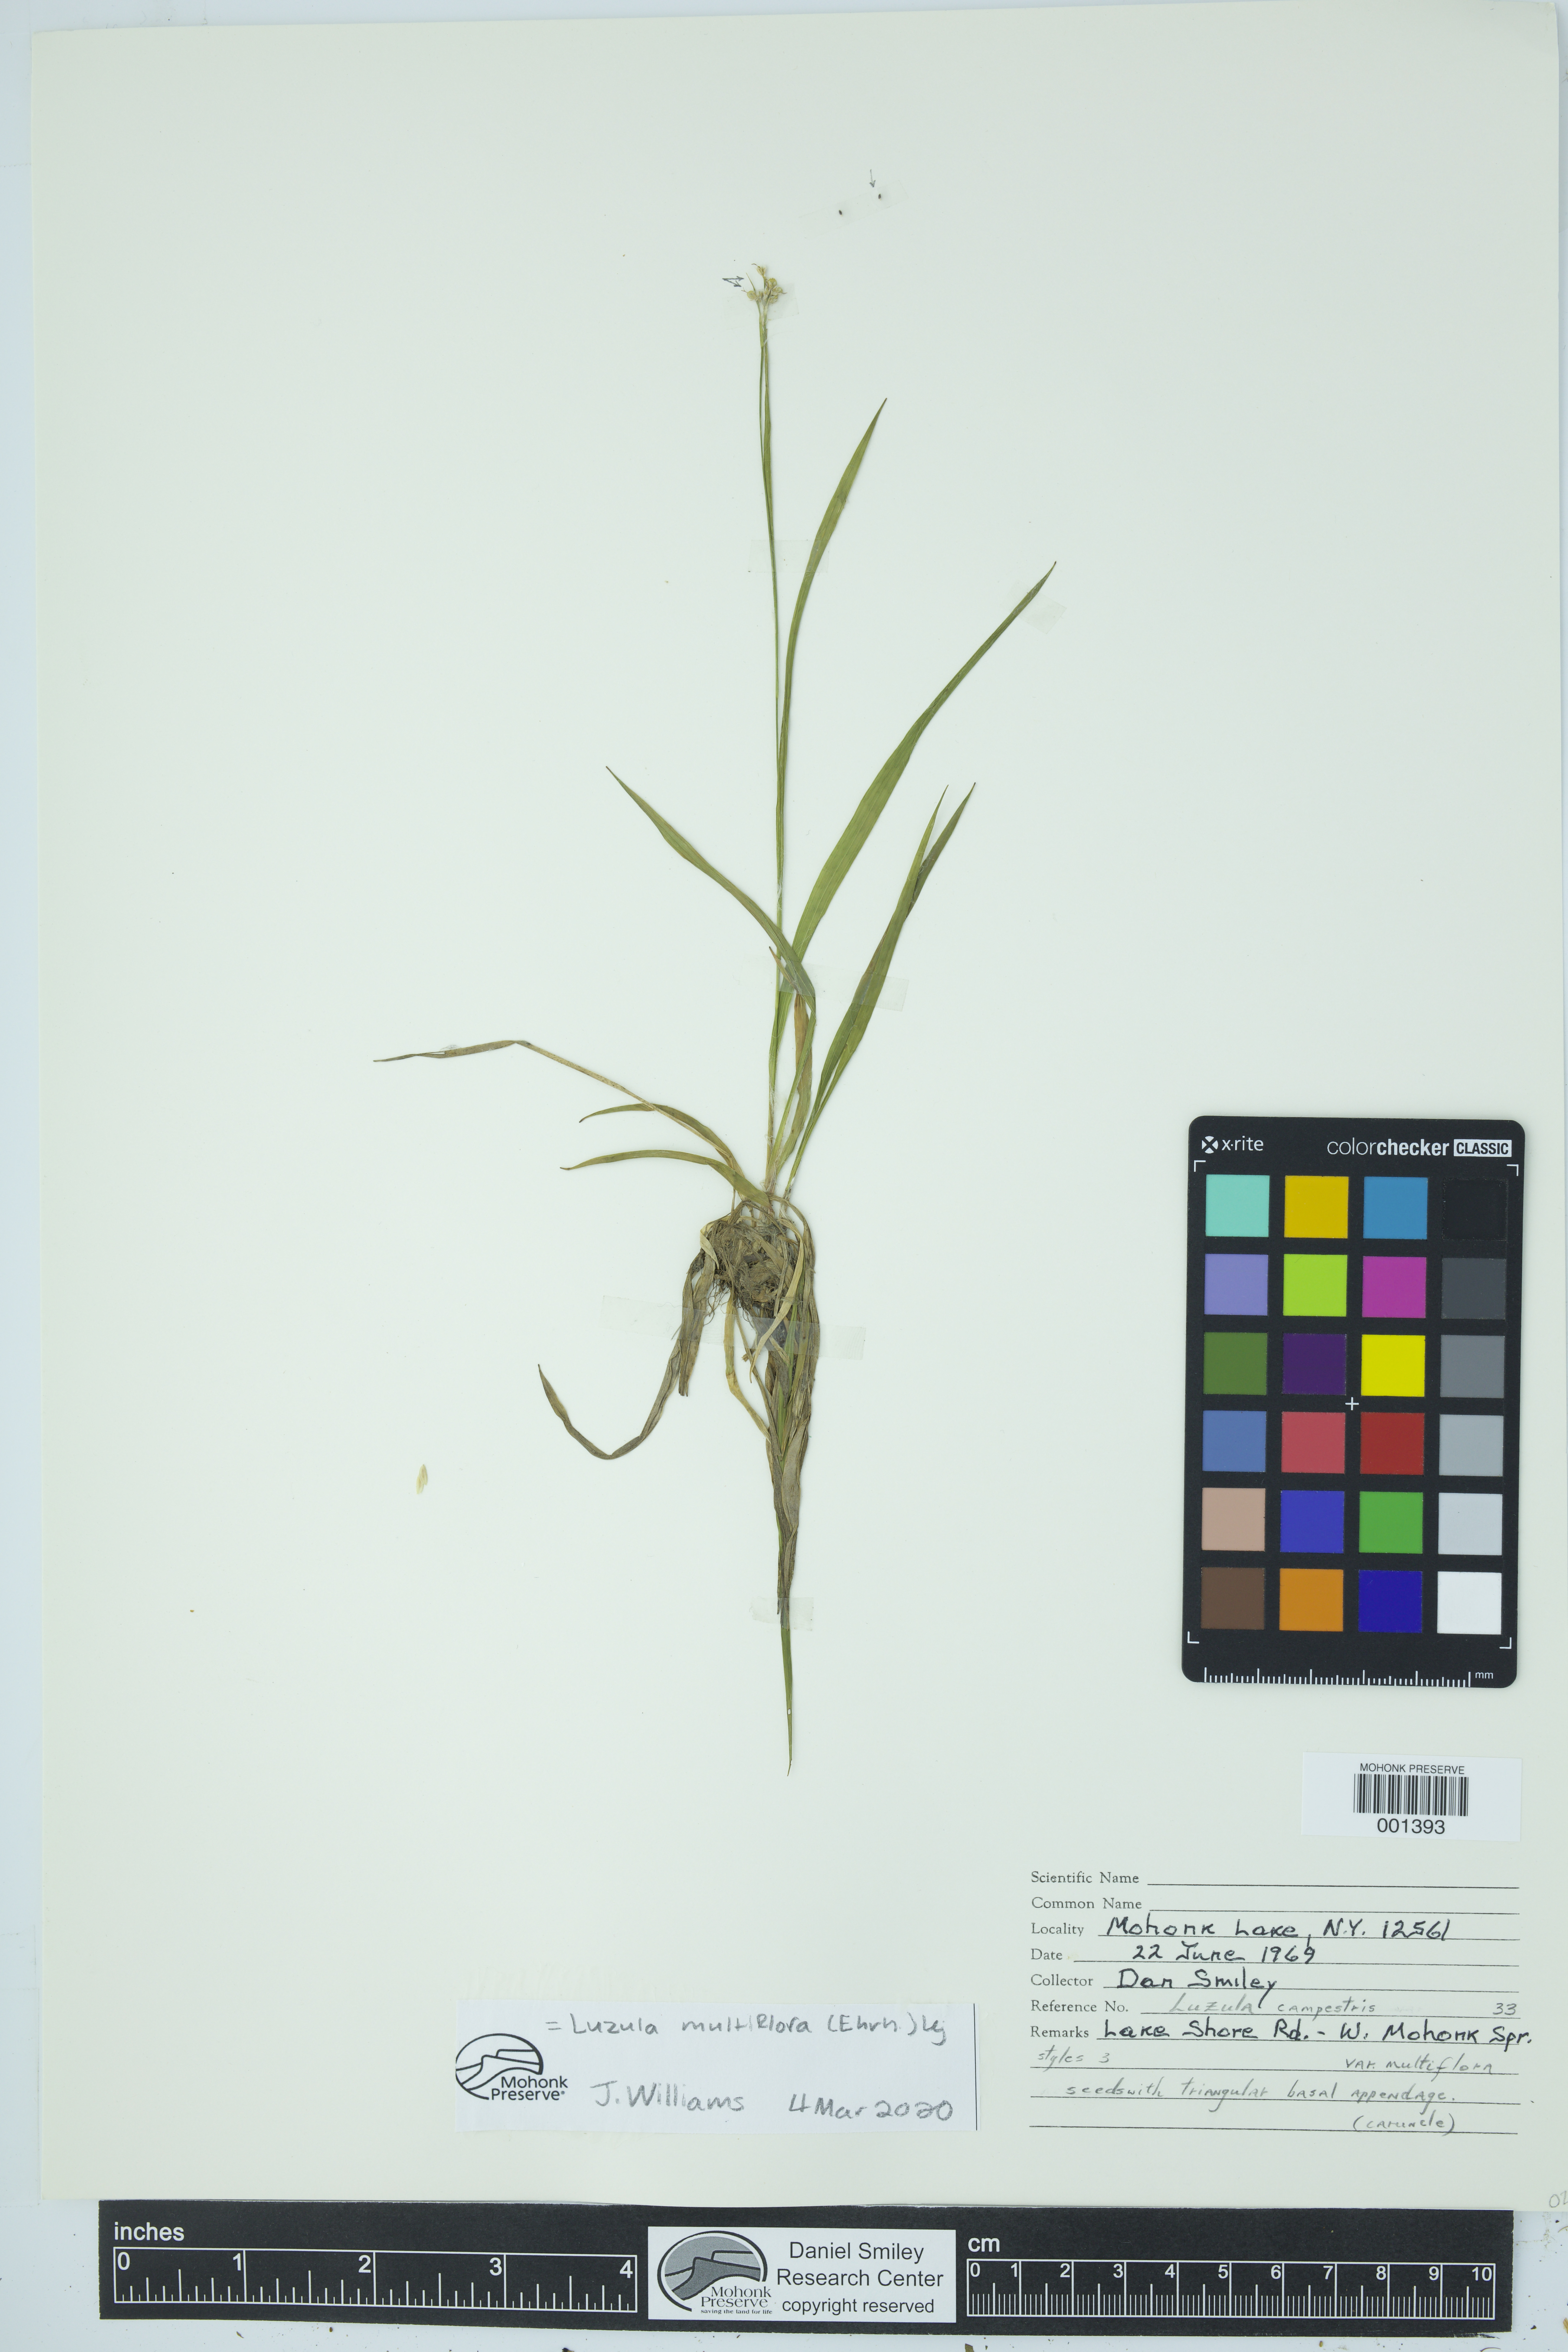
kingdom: Plantae
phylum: Tracheophyta
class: Liliopsida
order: Poales
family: Juncaceae
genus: Luzula
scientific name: Luzula multiflora
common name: Heath wood-rush
